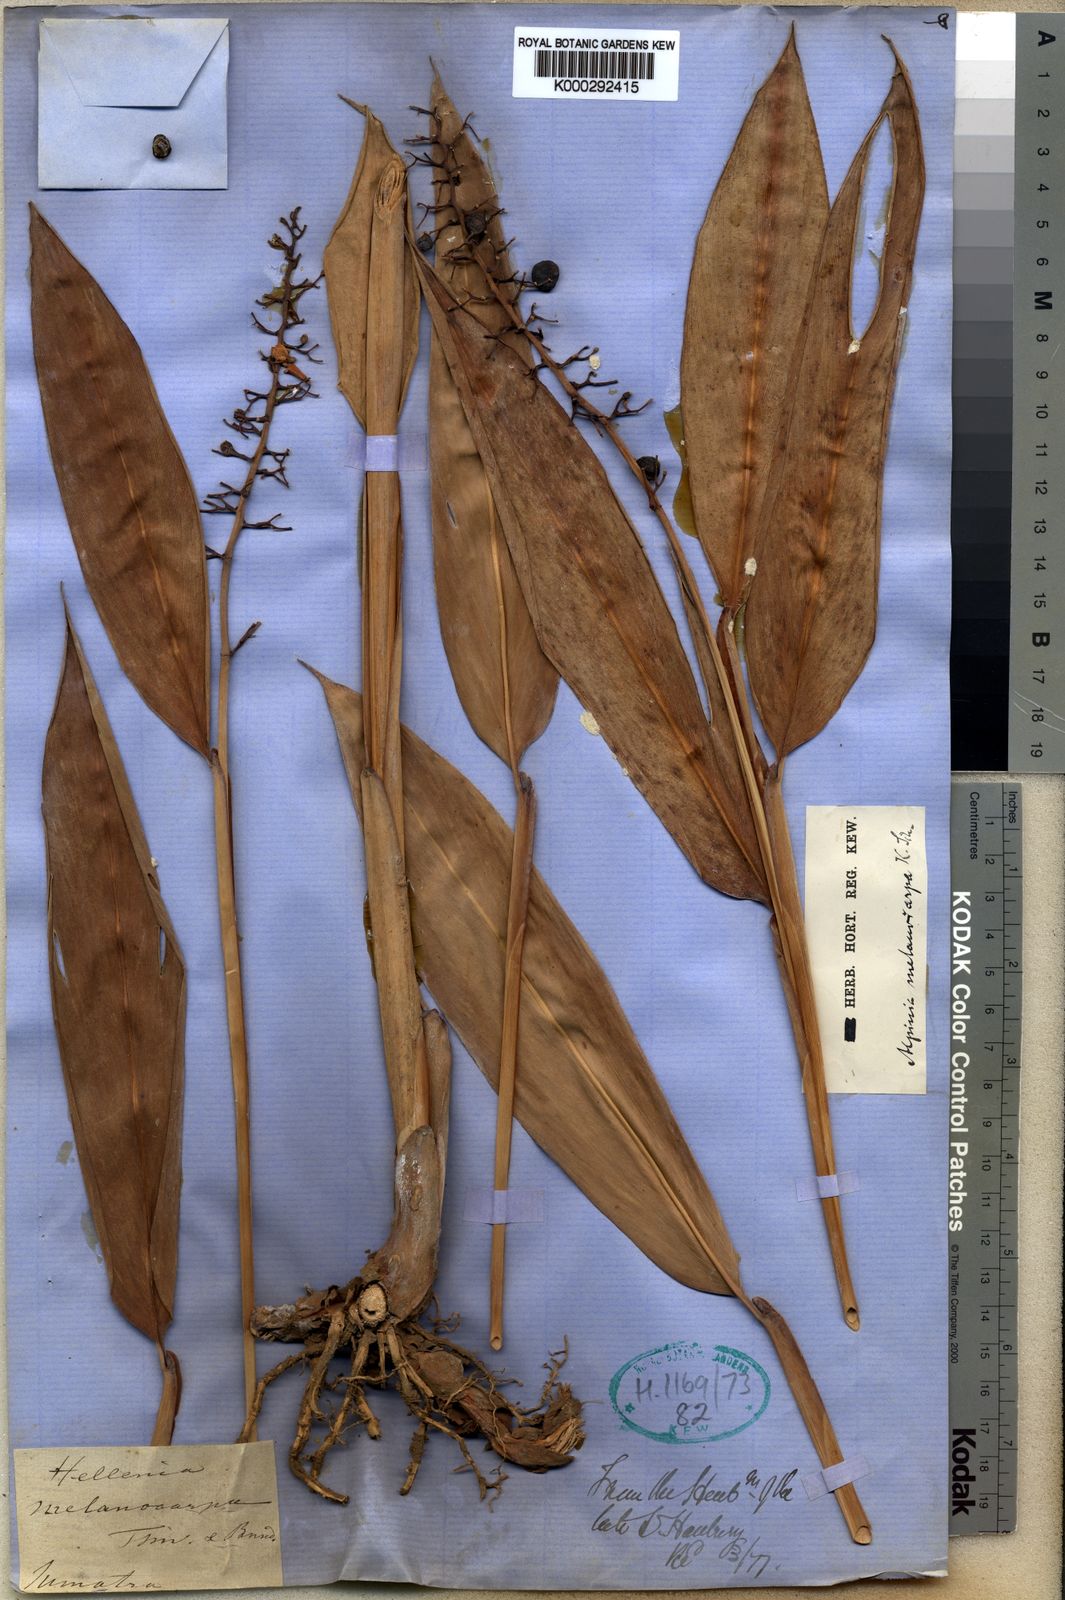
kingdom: Plantae
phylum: Tracheophyta
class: Liliopsida
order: Zingiberales
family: Zingiberaceae
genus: Alpinia
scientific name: Alpinia aquatica
